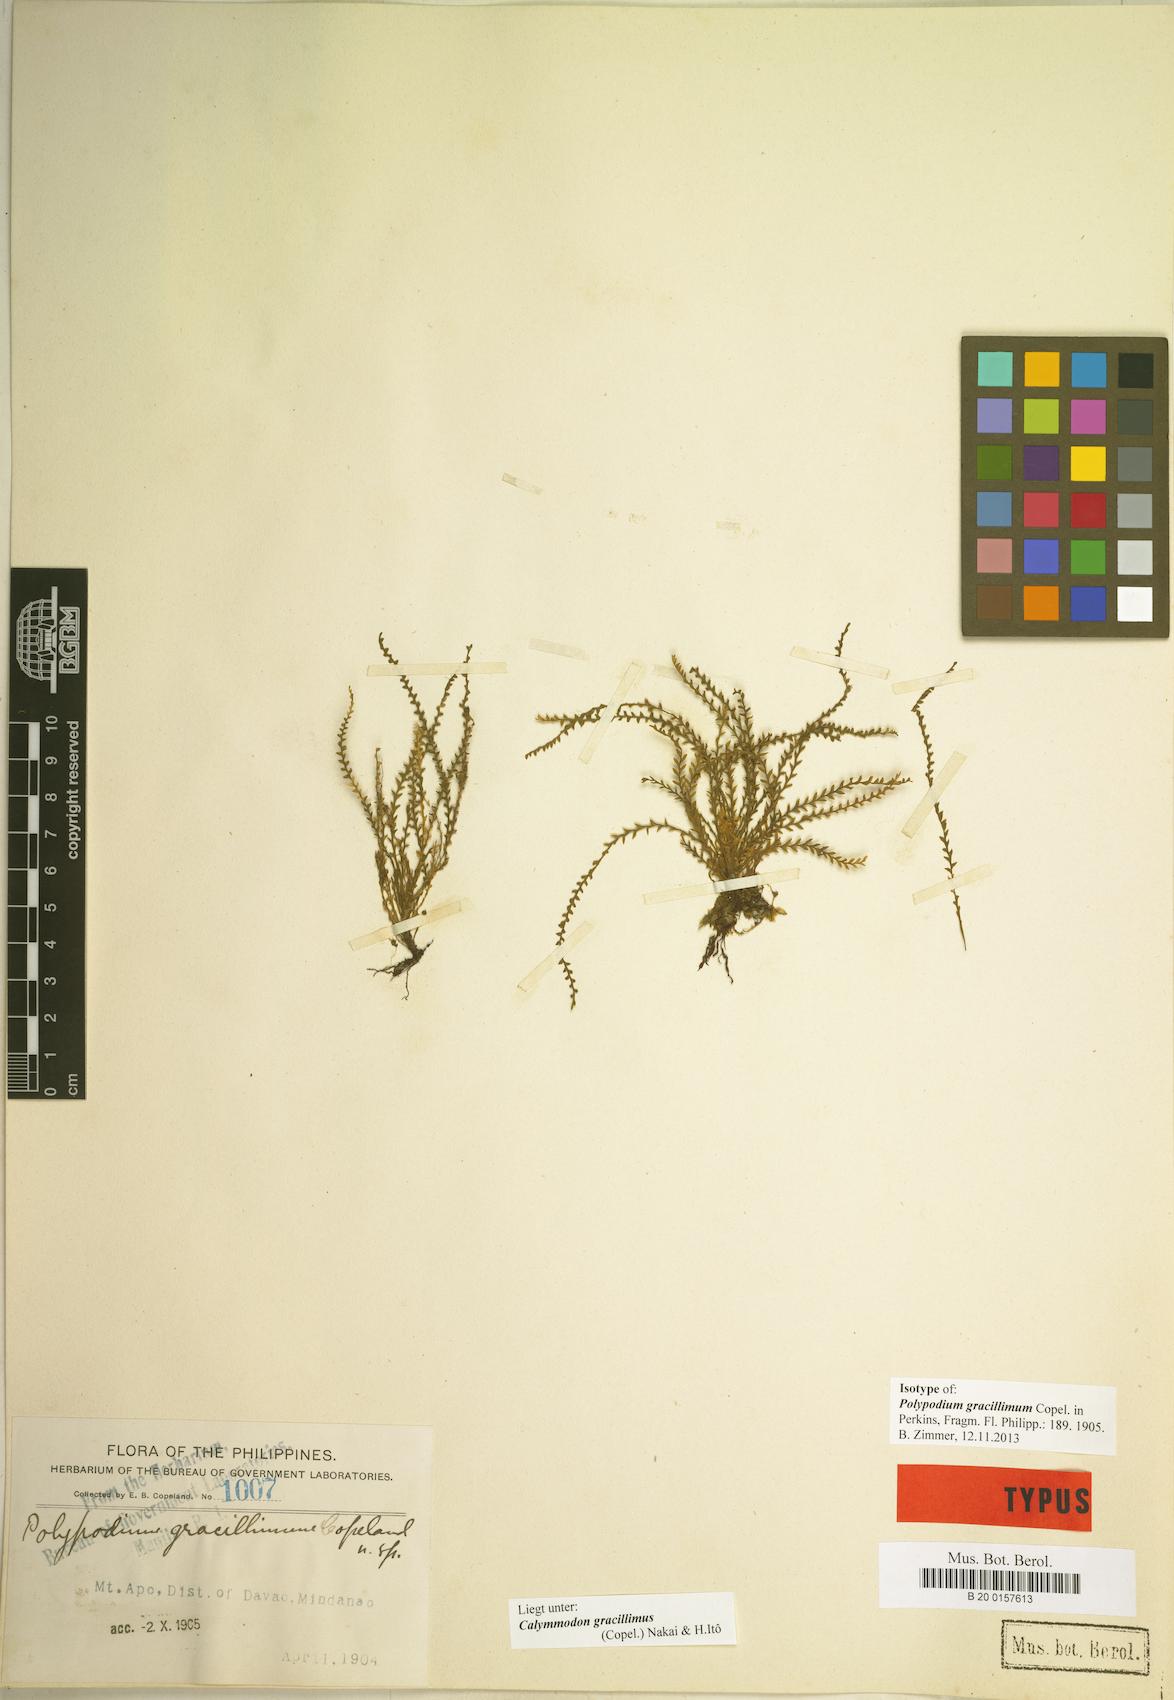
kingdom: Plantae
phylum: Tracheophyta
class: Polypodiopsida
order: Polypodiales
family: Polypodiaceae
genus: Calymmodon
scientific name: Calymmodon gracillimus
